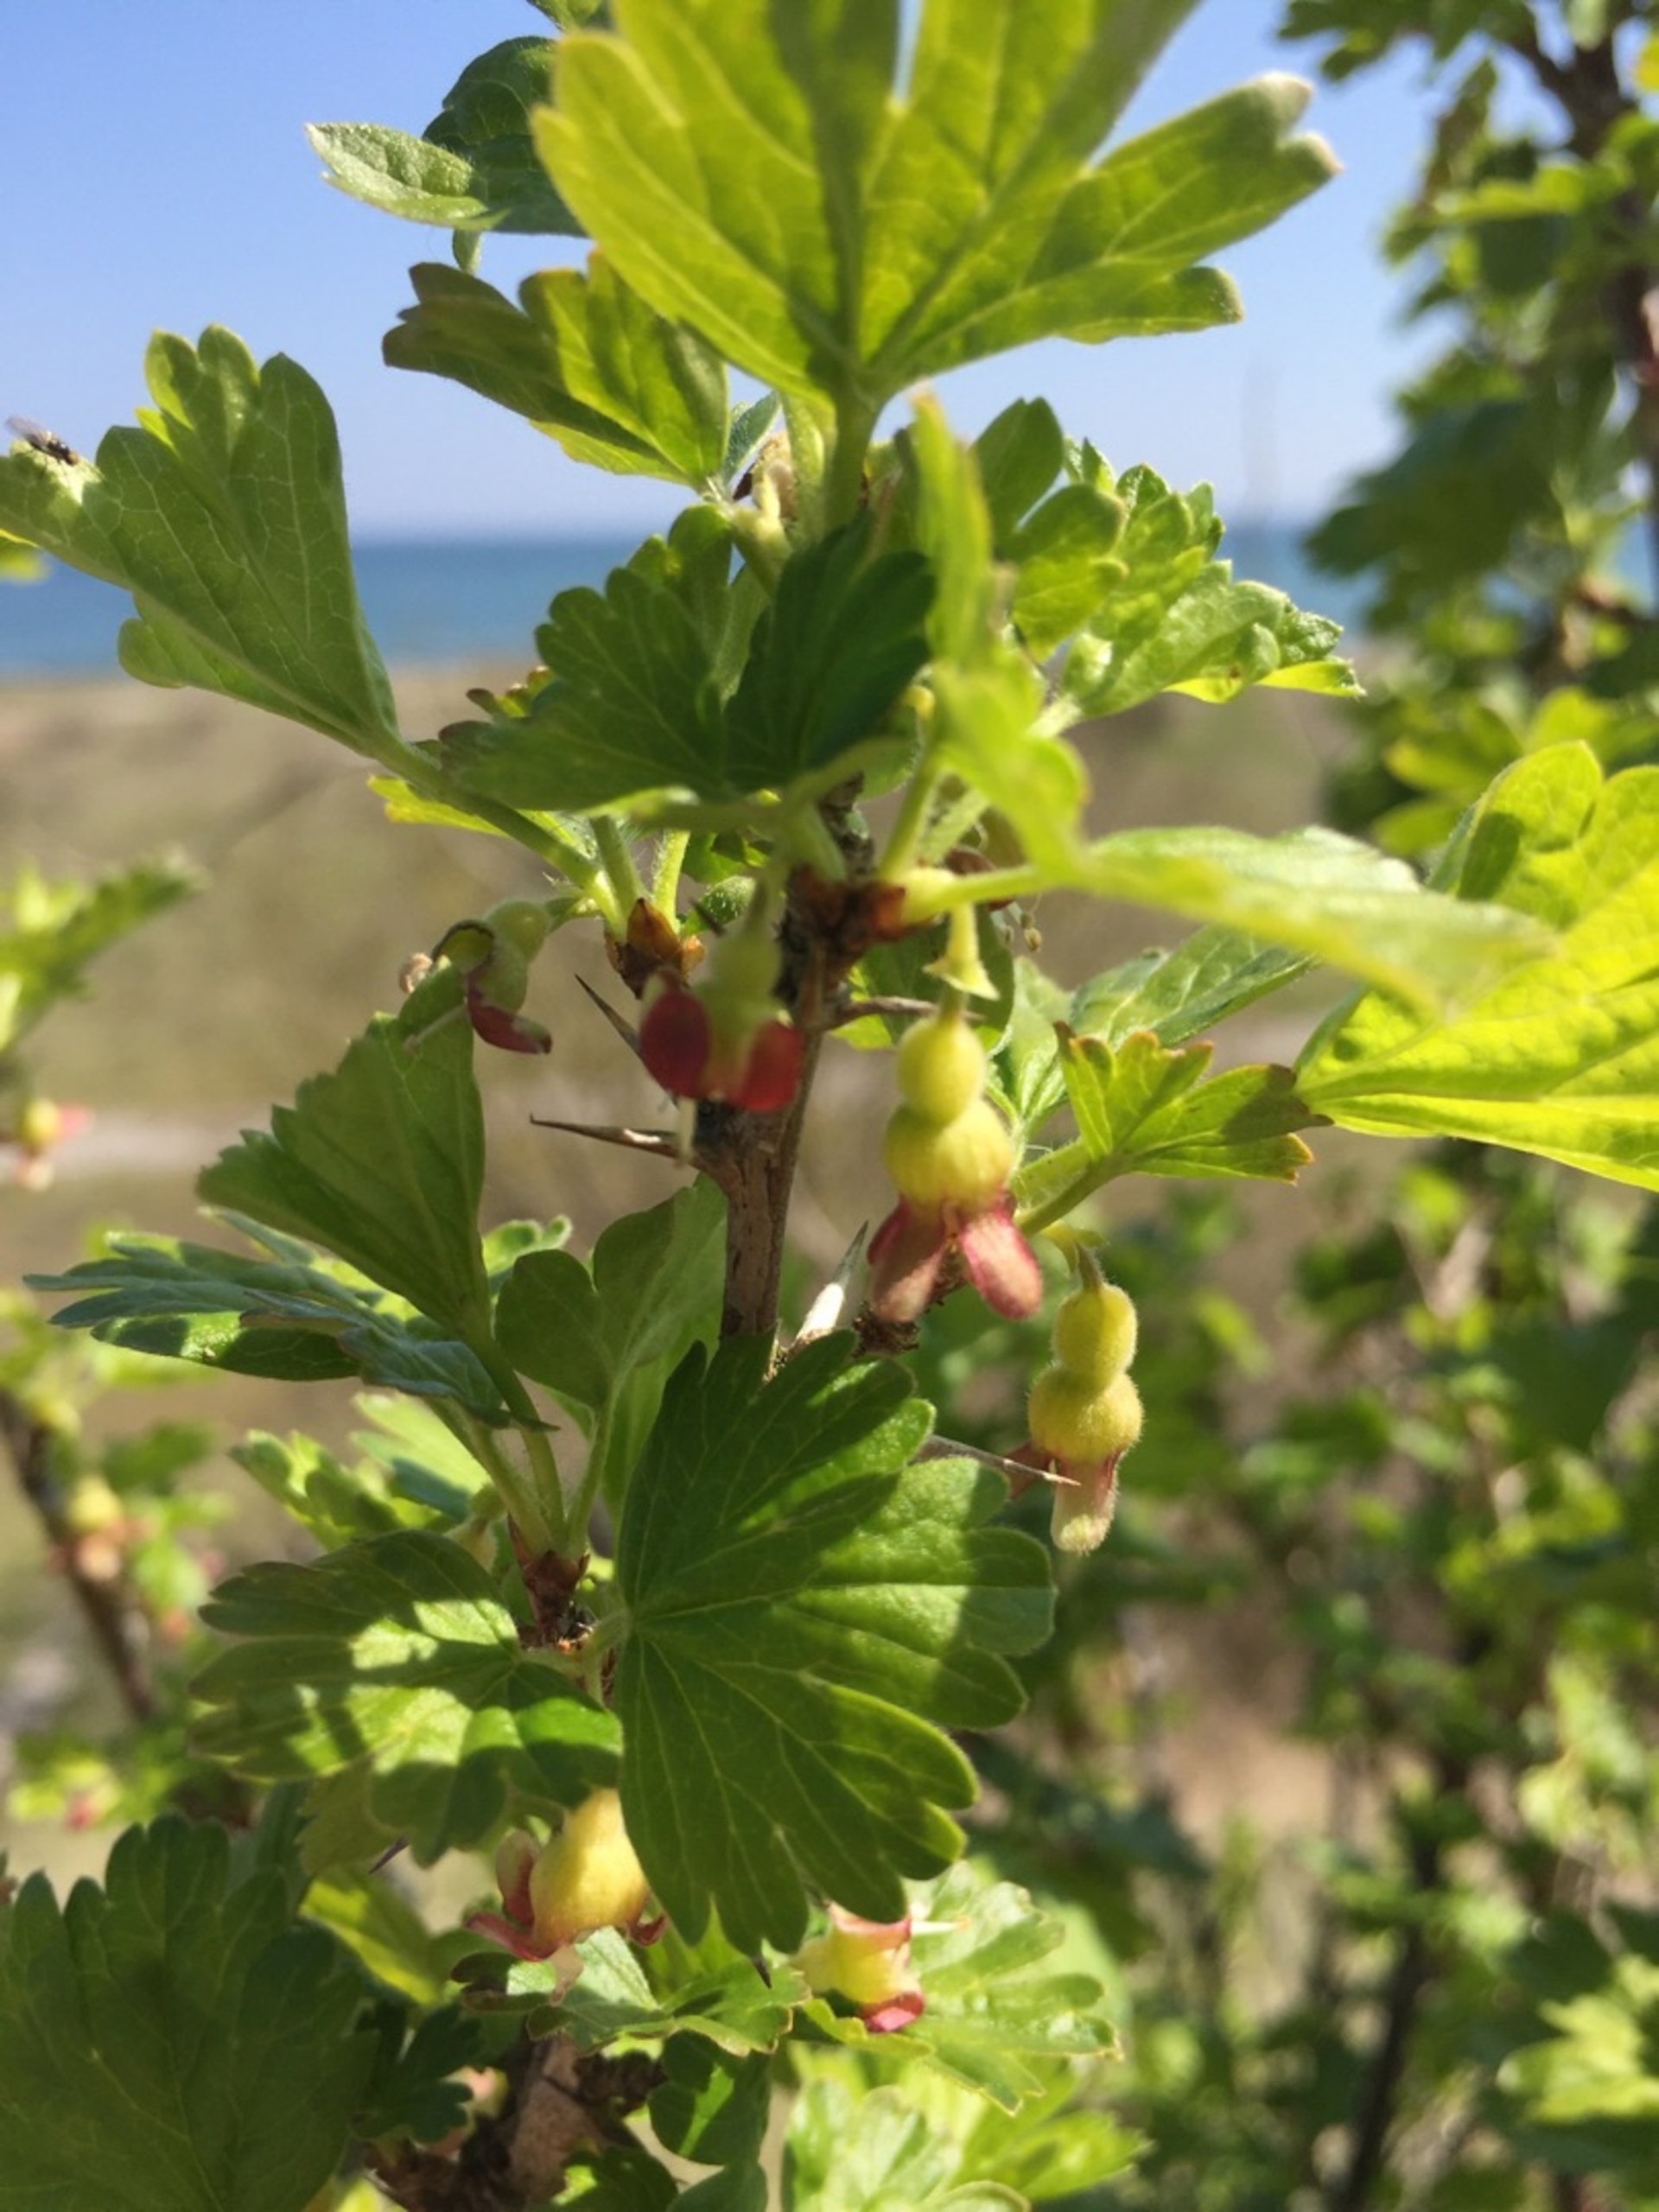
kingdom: Plantae
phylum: Tracheophyta
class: Magnoliopsida
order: Saxifragales
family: Grossulariaceae
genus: Ribes
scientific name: Ribes uva-crispa
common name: Stikkelsbær
